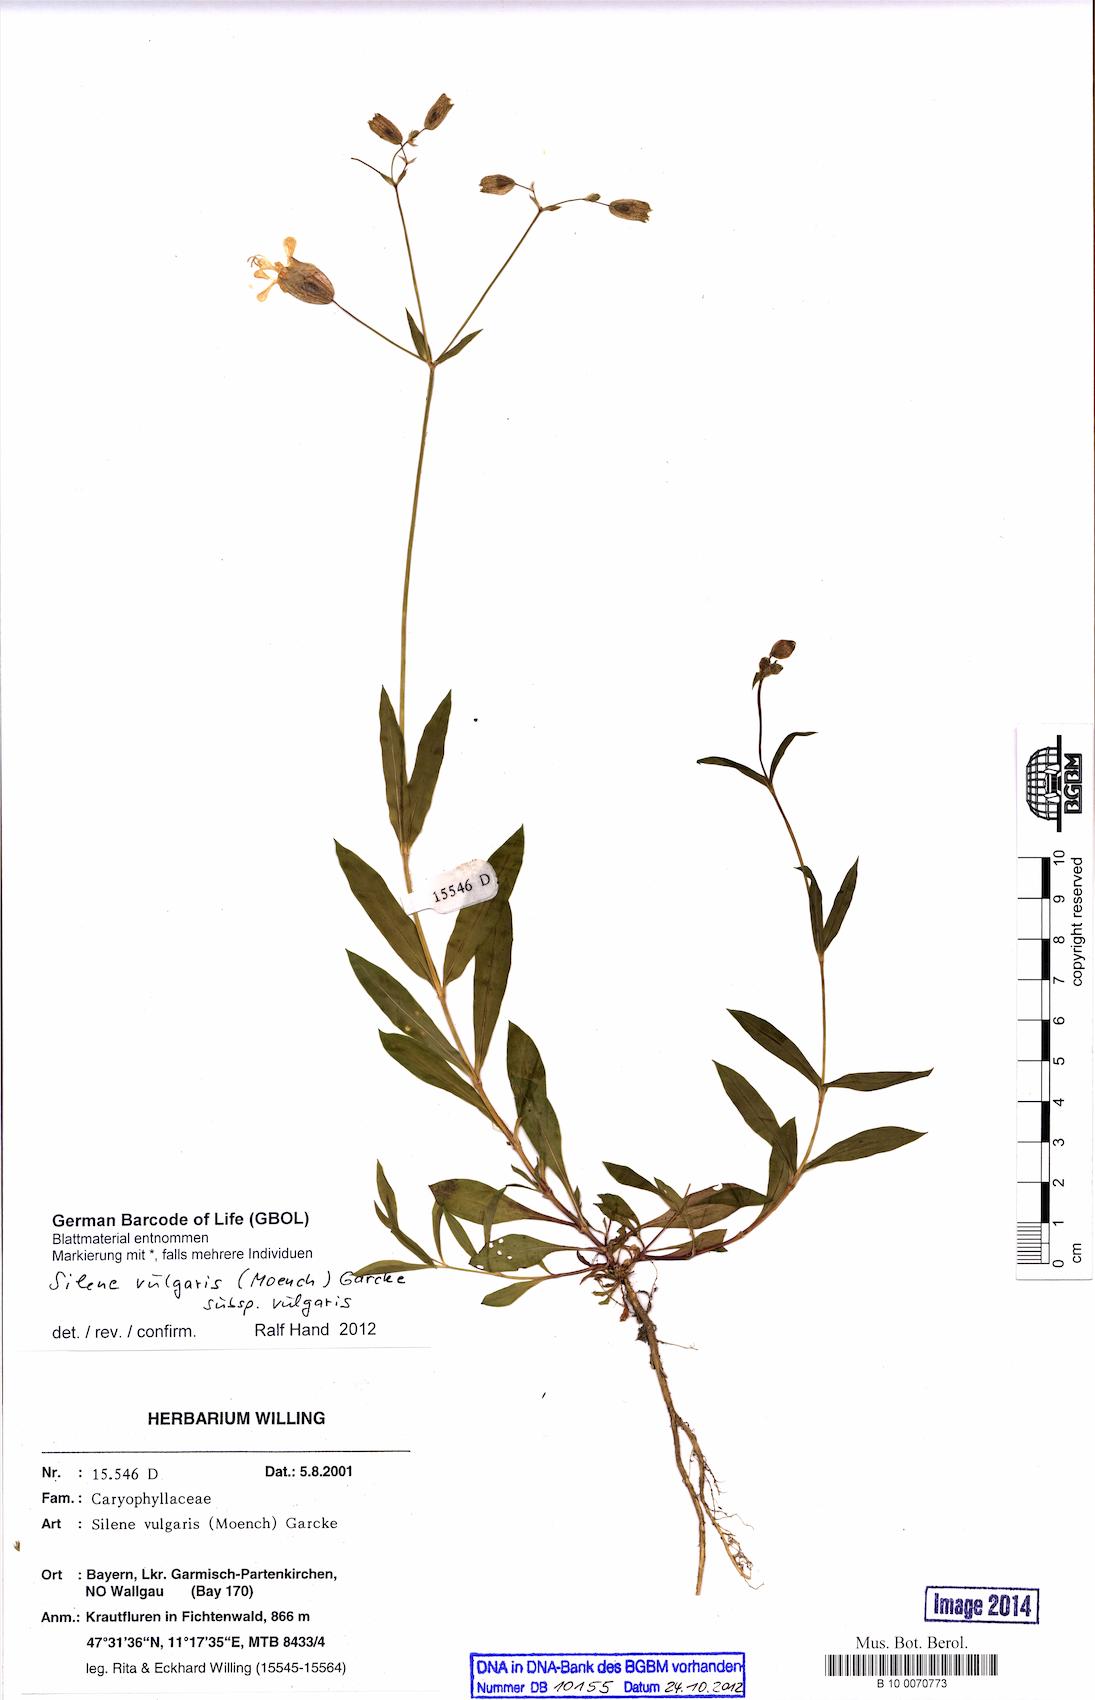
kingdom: Plantae
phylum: Tracheophyta
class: Magnoliopsida
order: Caryophyllales
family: Caryophyllaceae
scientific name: Caryophyllaceae
